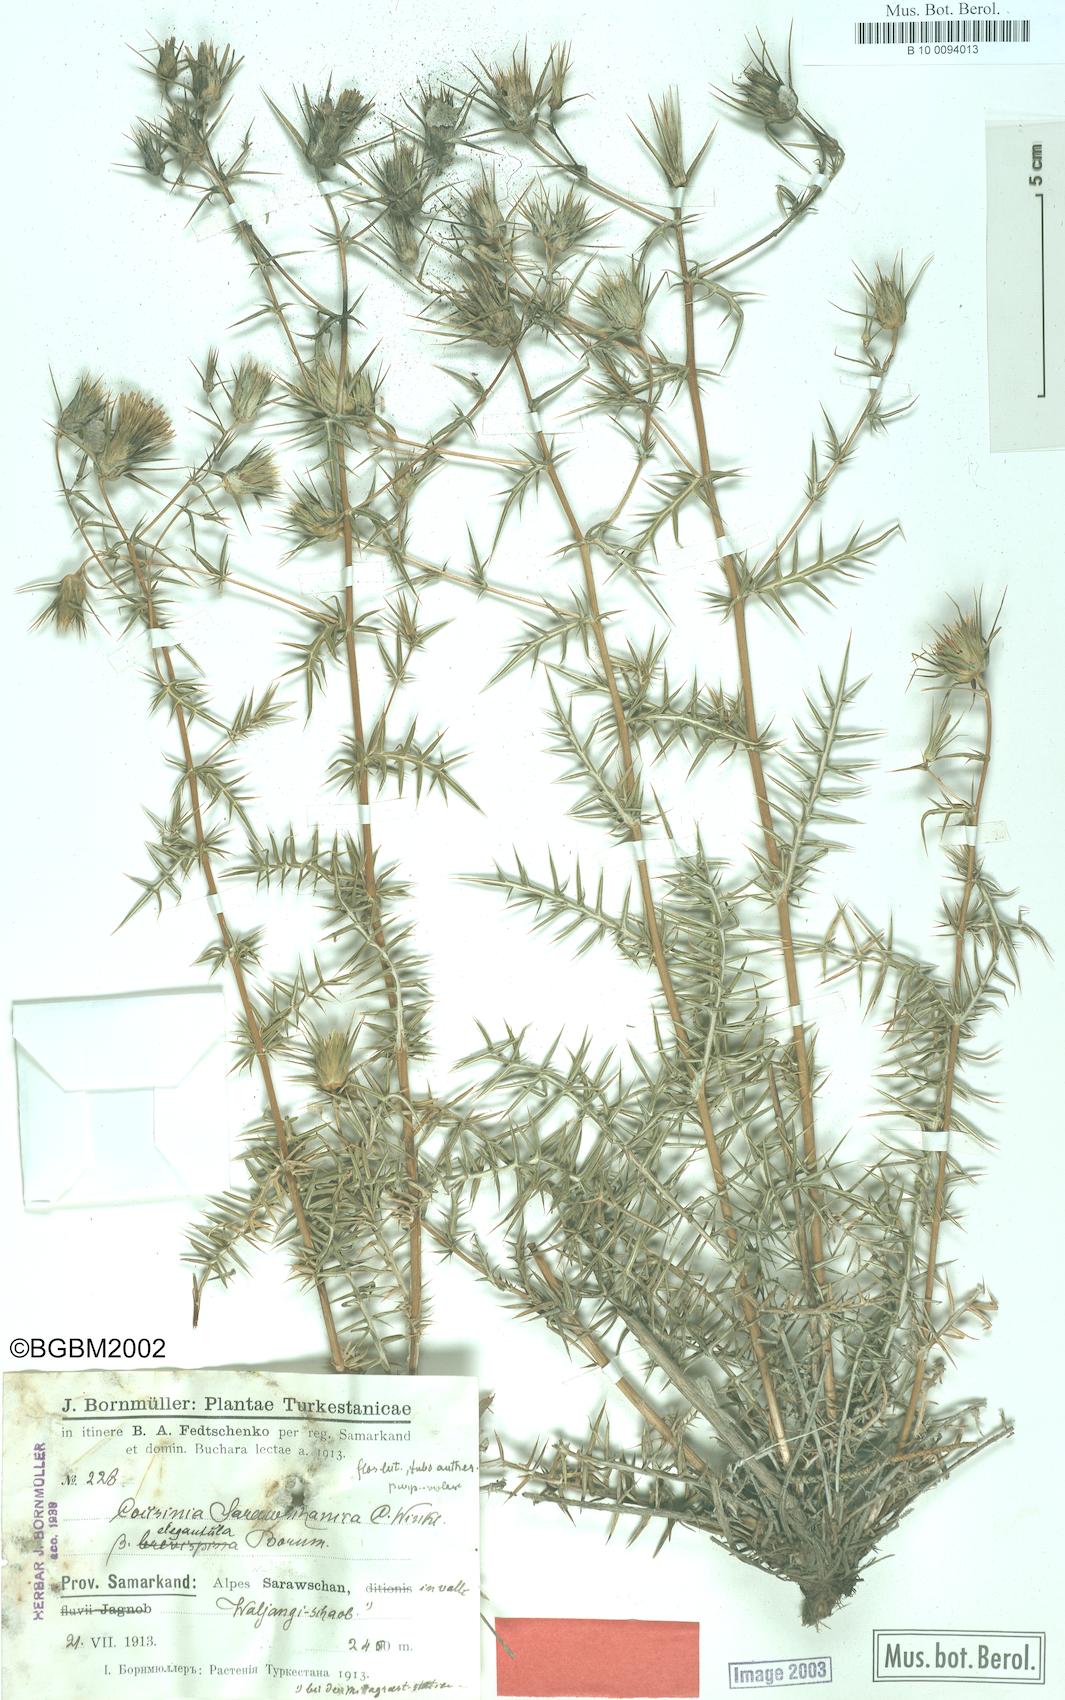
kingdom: Plantae
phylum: Tracheophyta
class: Magnoliopsida
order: Asterales
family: Asteraceae
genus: Cousinia
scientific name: Cousinia sarawschanica
